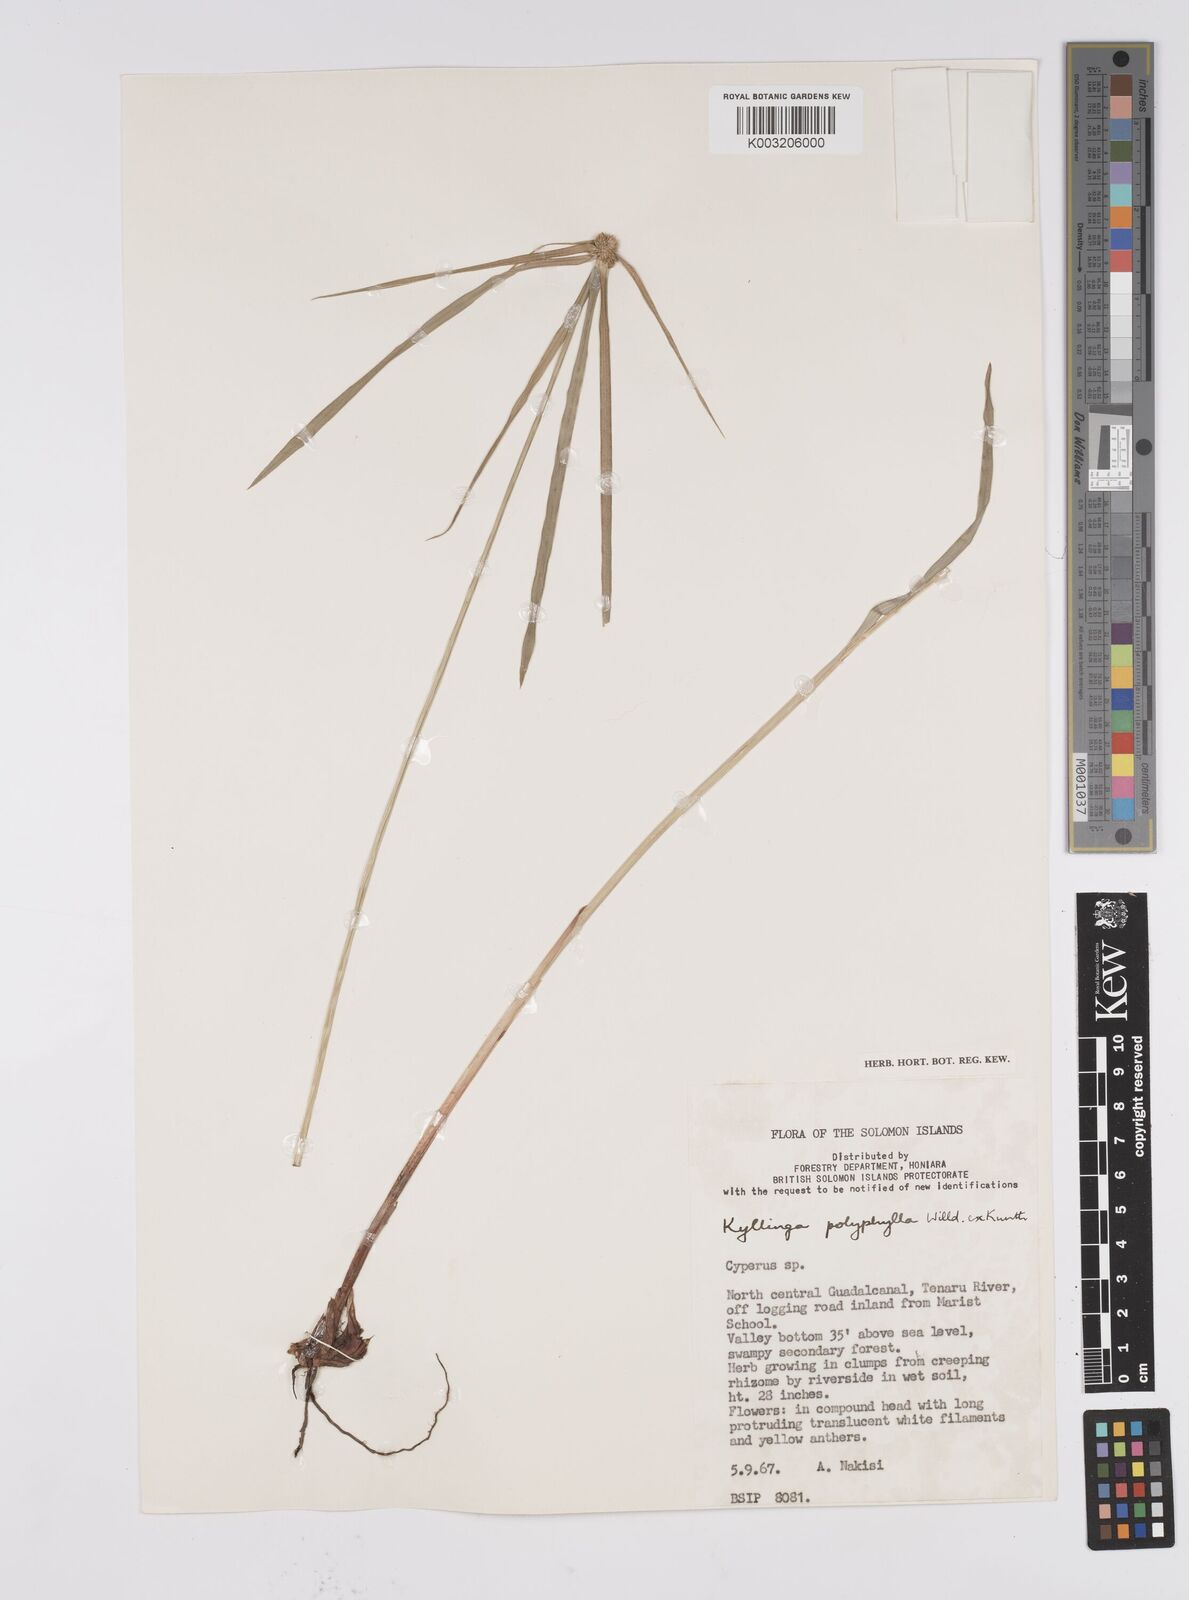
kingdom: Plantae
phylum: Tracheophyta
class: Liliopsida
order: Poales
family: Cyperaceae
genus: Cyperus
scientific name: Cyperus bulbosus
